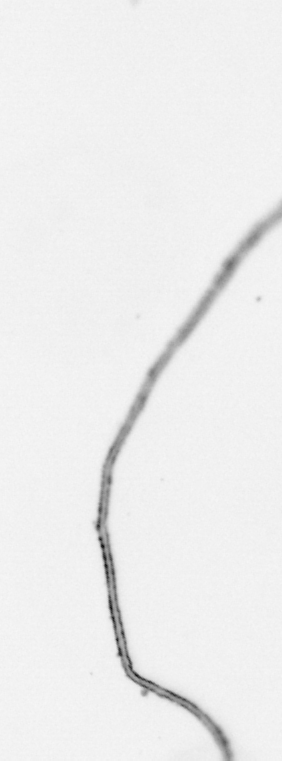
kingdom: Chromista
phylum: Ochrophyta
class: Bacillariophyceae
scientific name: Bacillariophyceae
